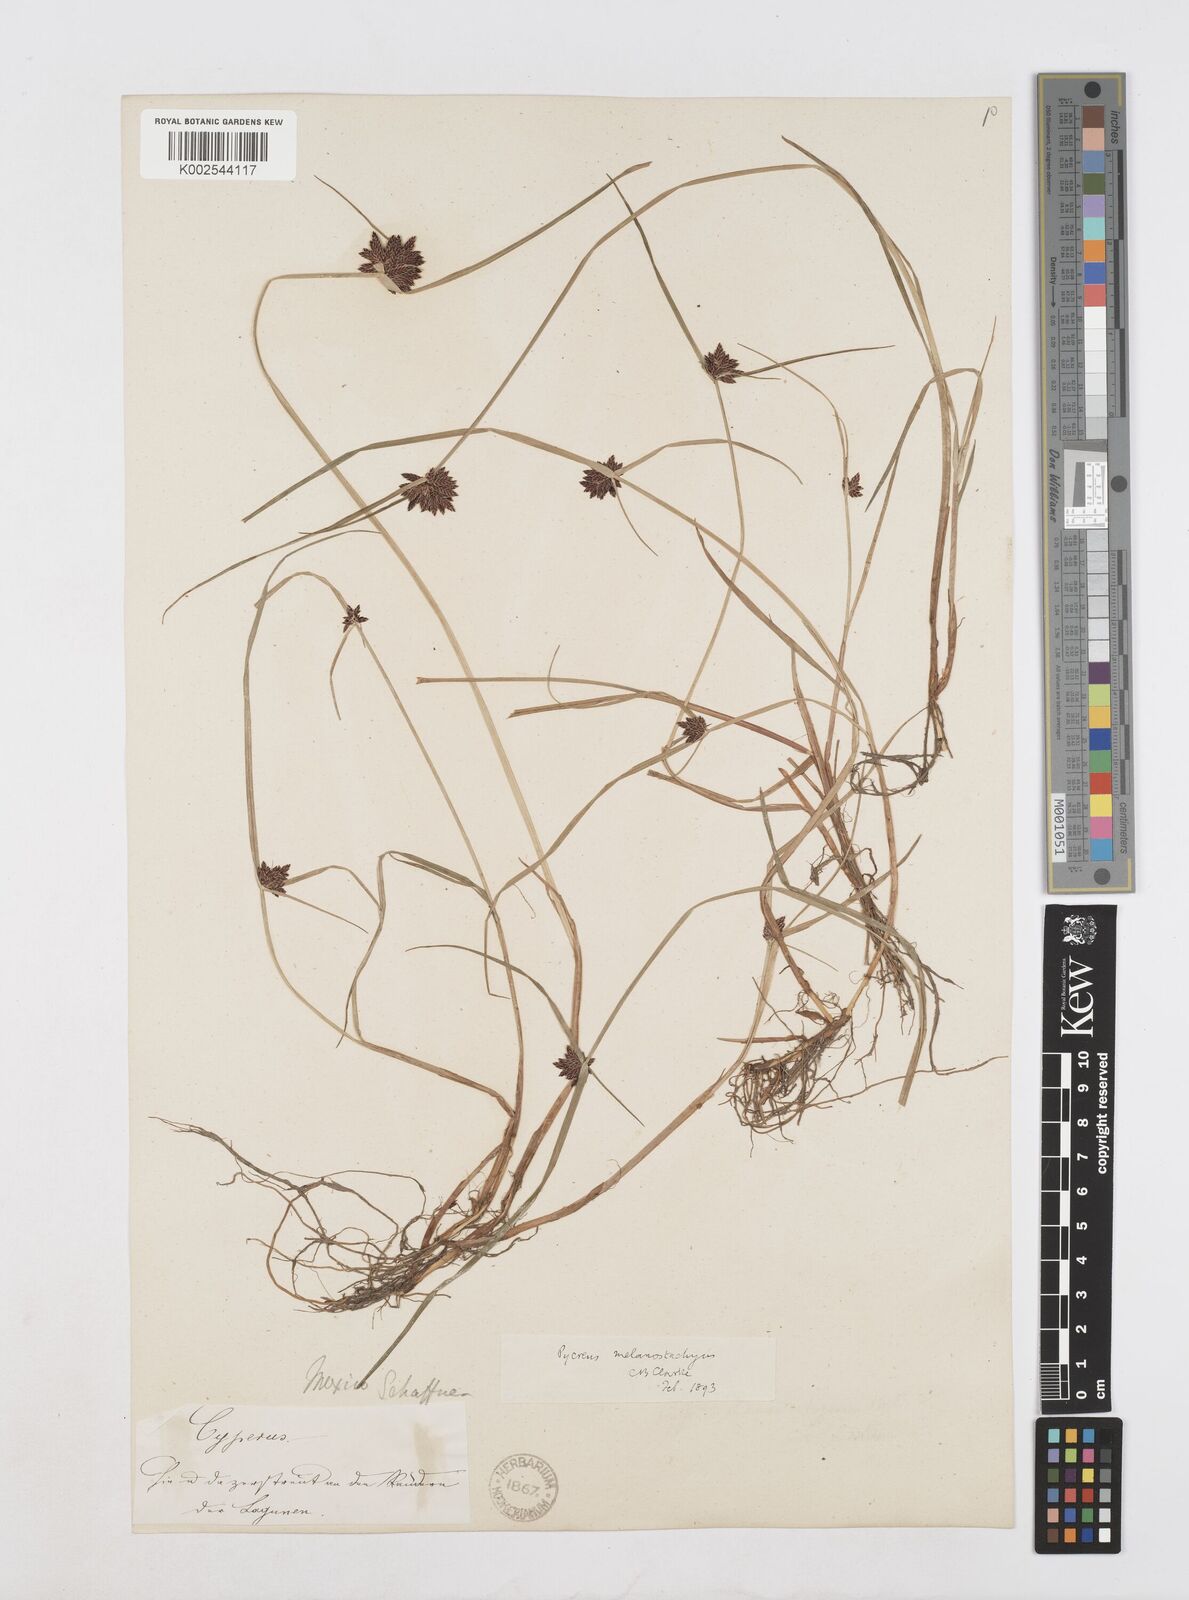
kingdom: Plantae
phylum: Tracheophyta
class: Liliopsida
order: Poales
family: Cyperaceae
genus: Cyperus
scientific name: Cyperus melanostachyus
